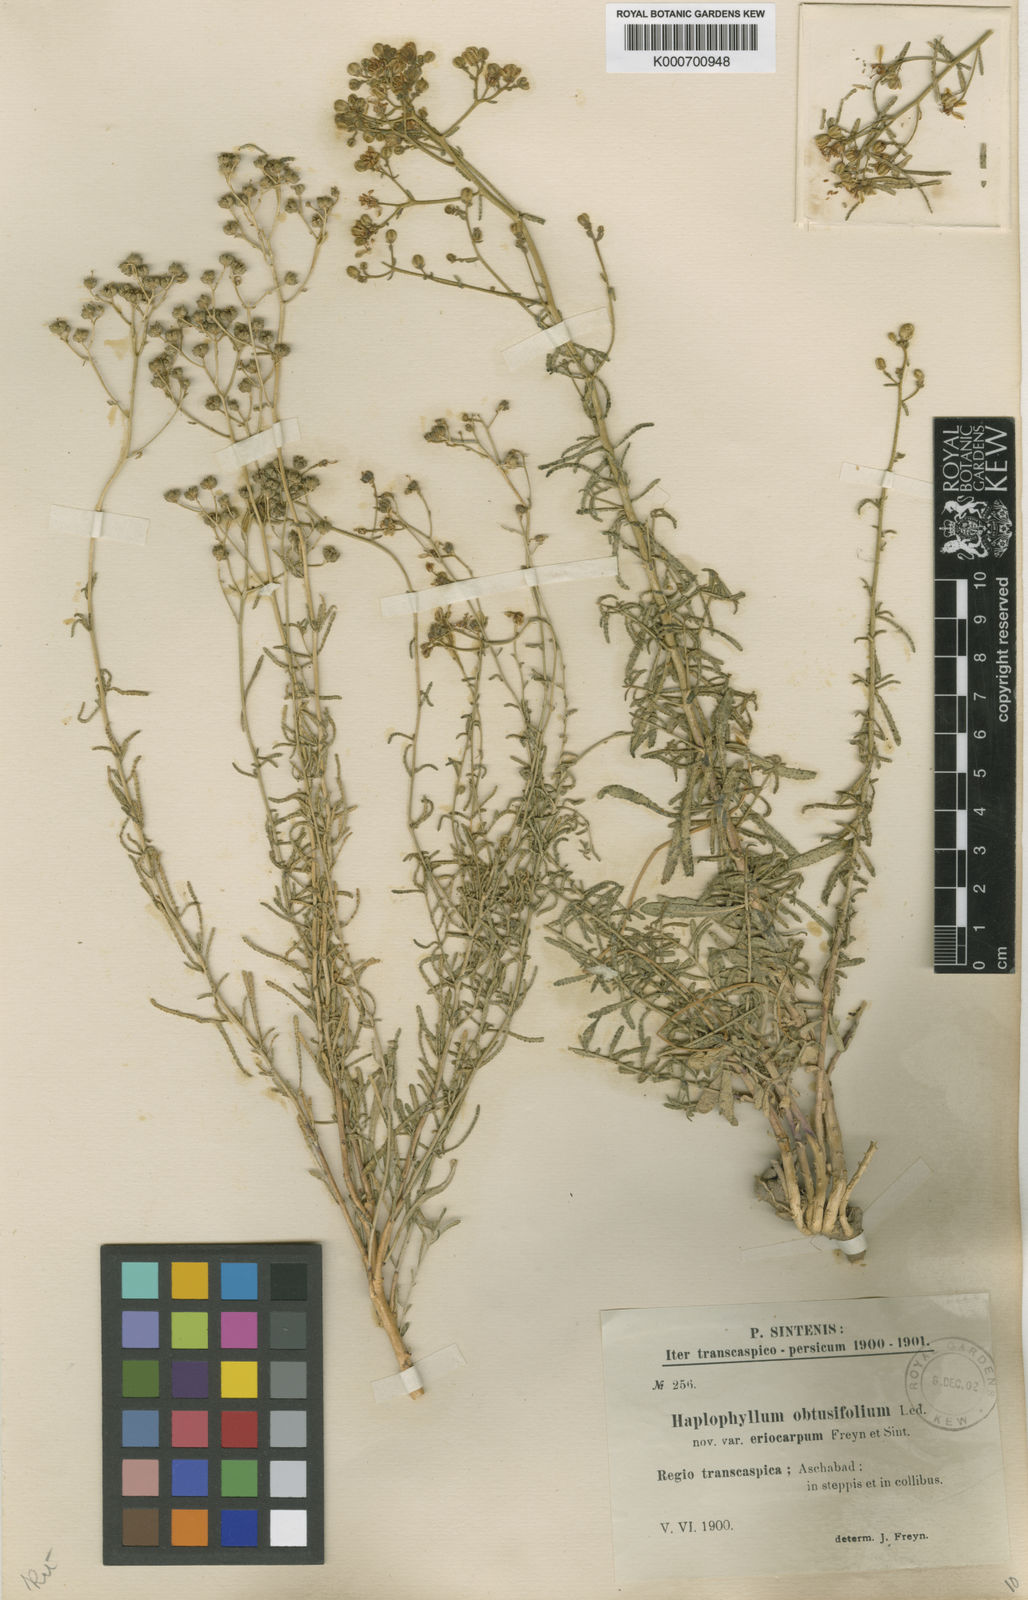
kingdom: Plantae
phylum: Tracheophyta
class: Magnoliopsida
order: Sapindales
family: Rutaceae
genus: Haplophyllum
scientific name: Haplophyllum obtusifolium
